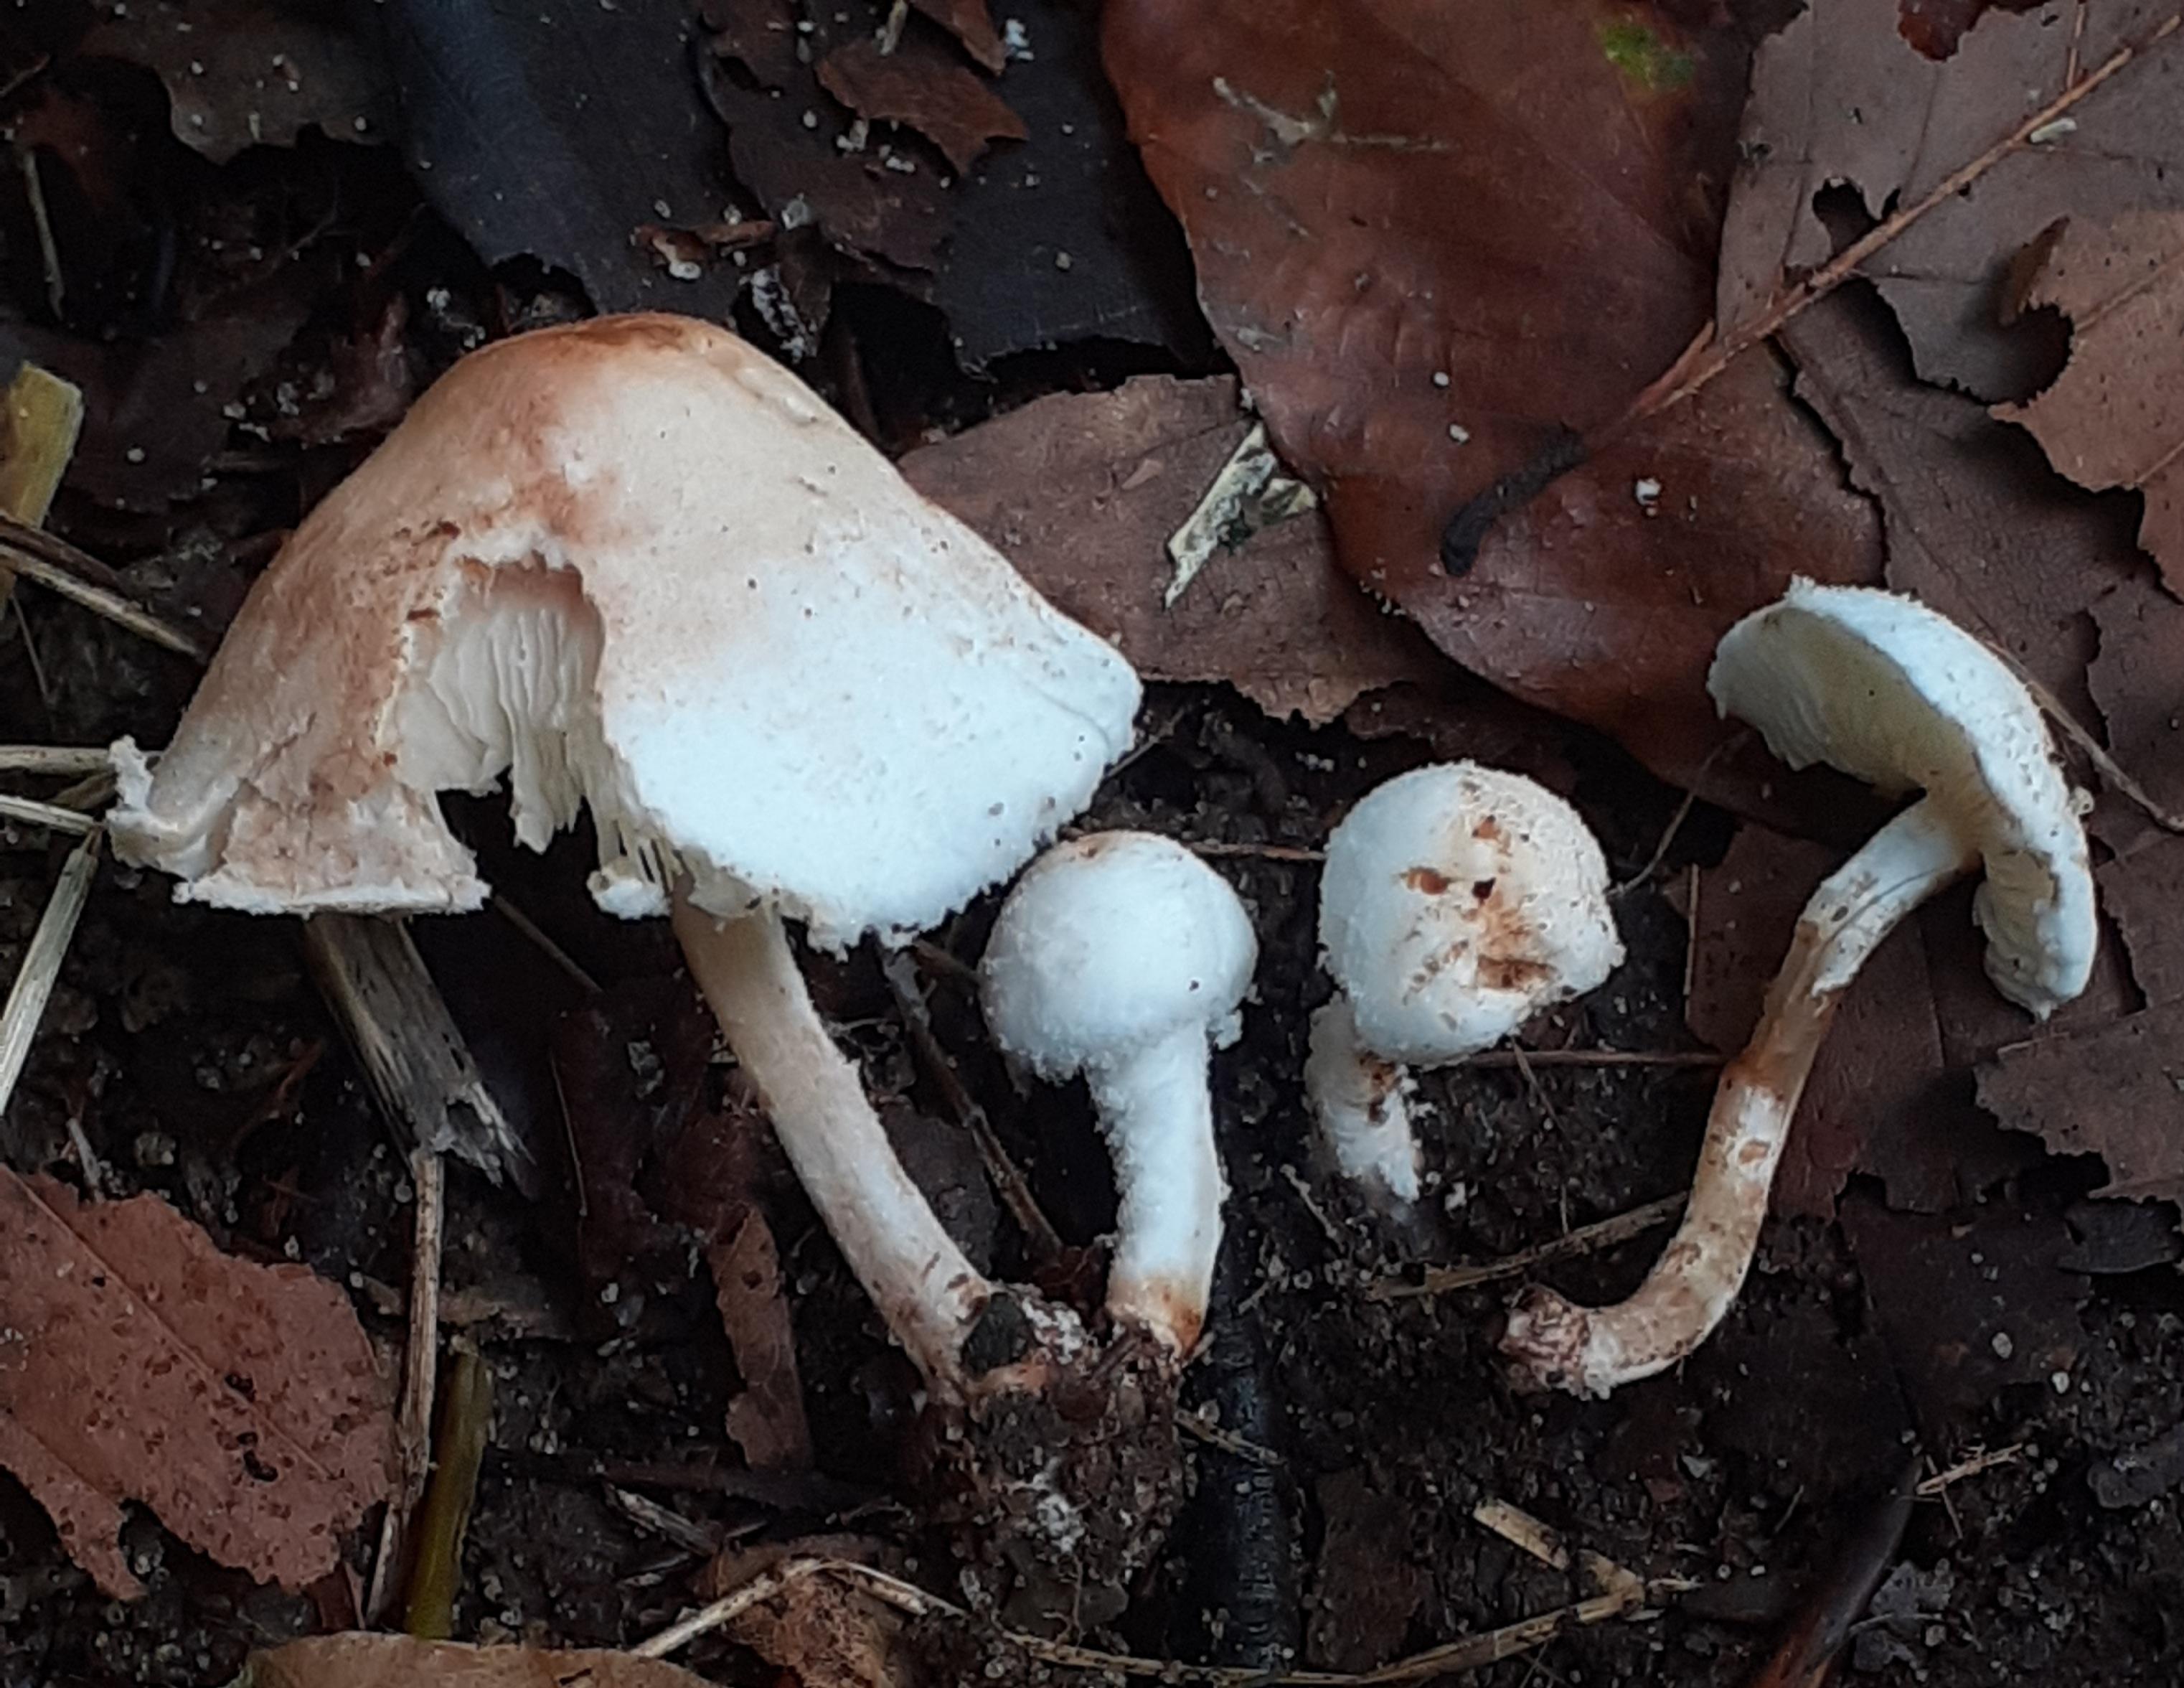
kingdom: Fungi
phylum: Basidiomycota
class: Agaricomycetes
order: Agaricales
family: Agaricaceae
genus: Lepiota
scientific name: Lepiota subalba
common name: hvidlig parasolhat
